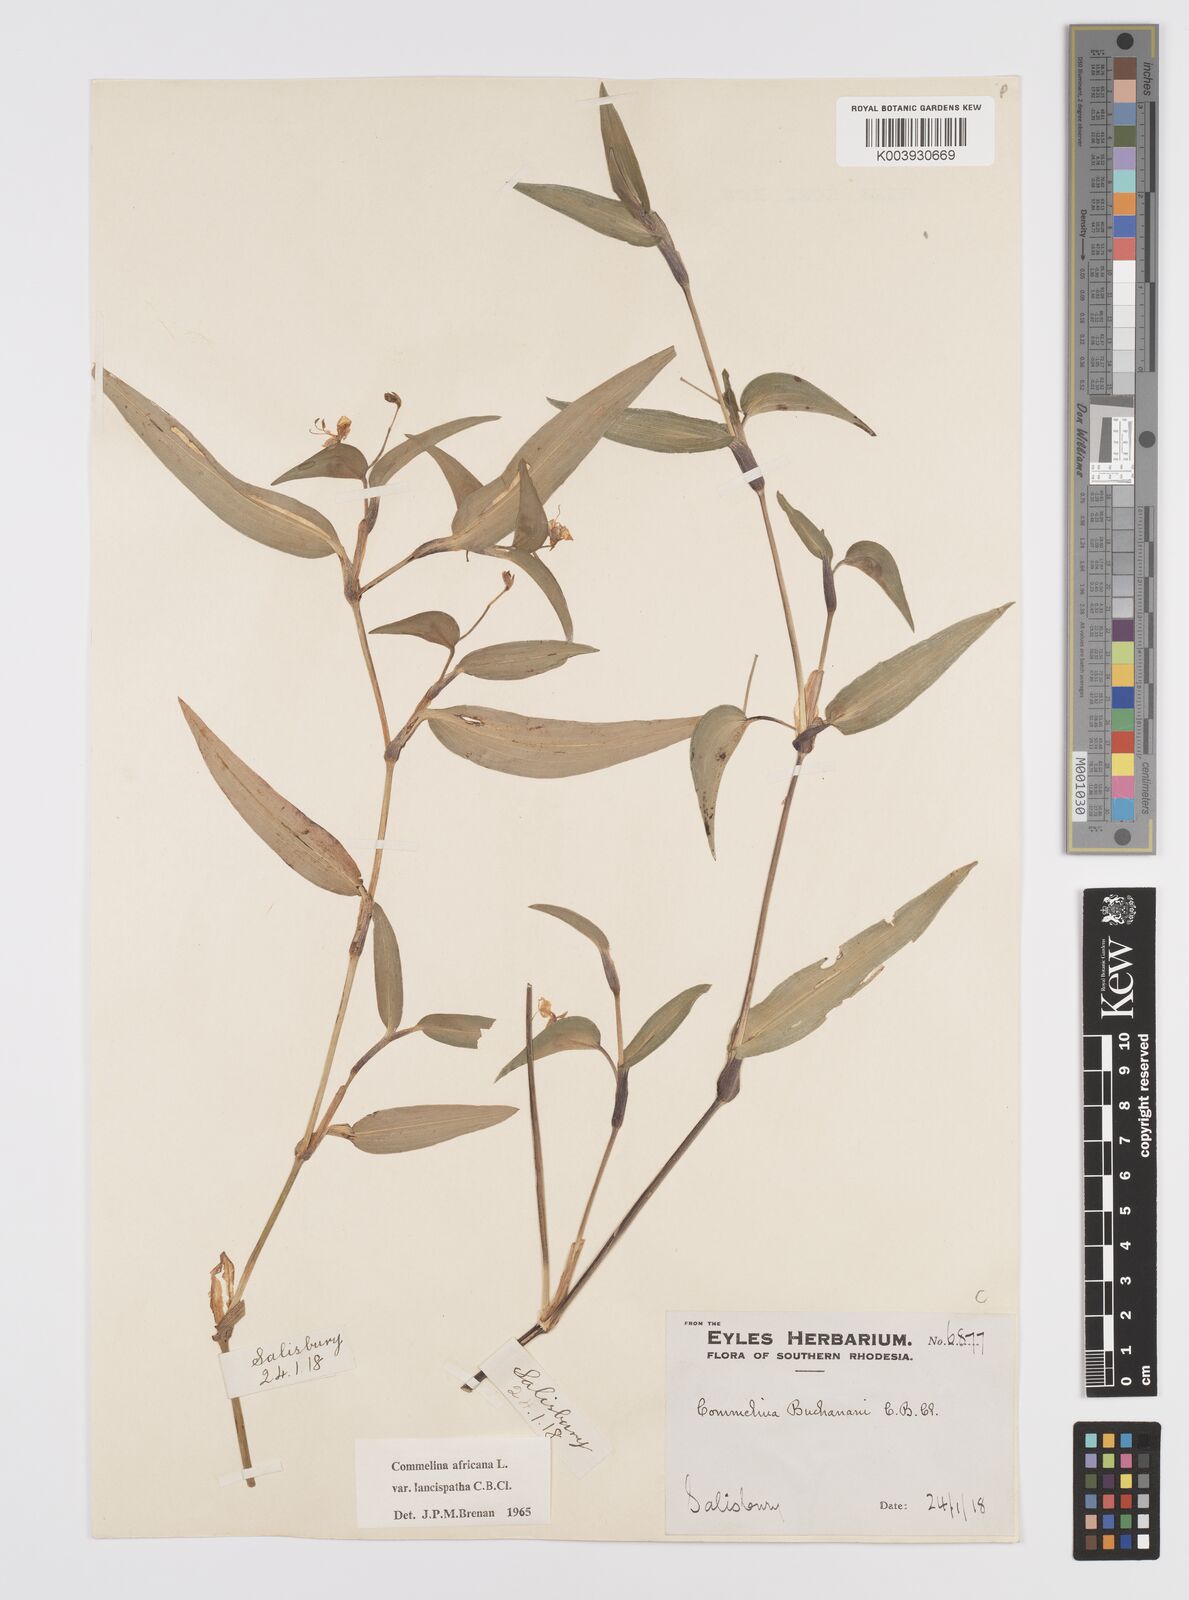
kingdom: Plantae
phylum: Tracheophyta
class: Liliopsida
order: Commelinales
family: Commelinaceae
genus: Commelina
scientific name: Commelina africana
